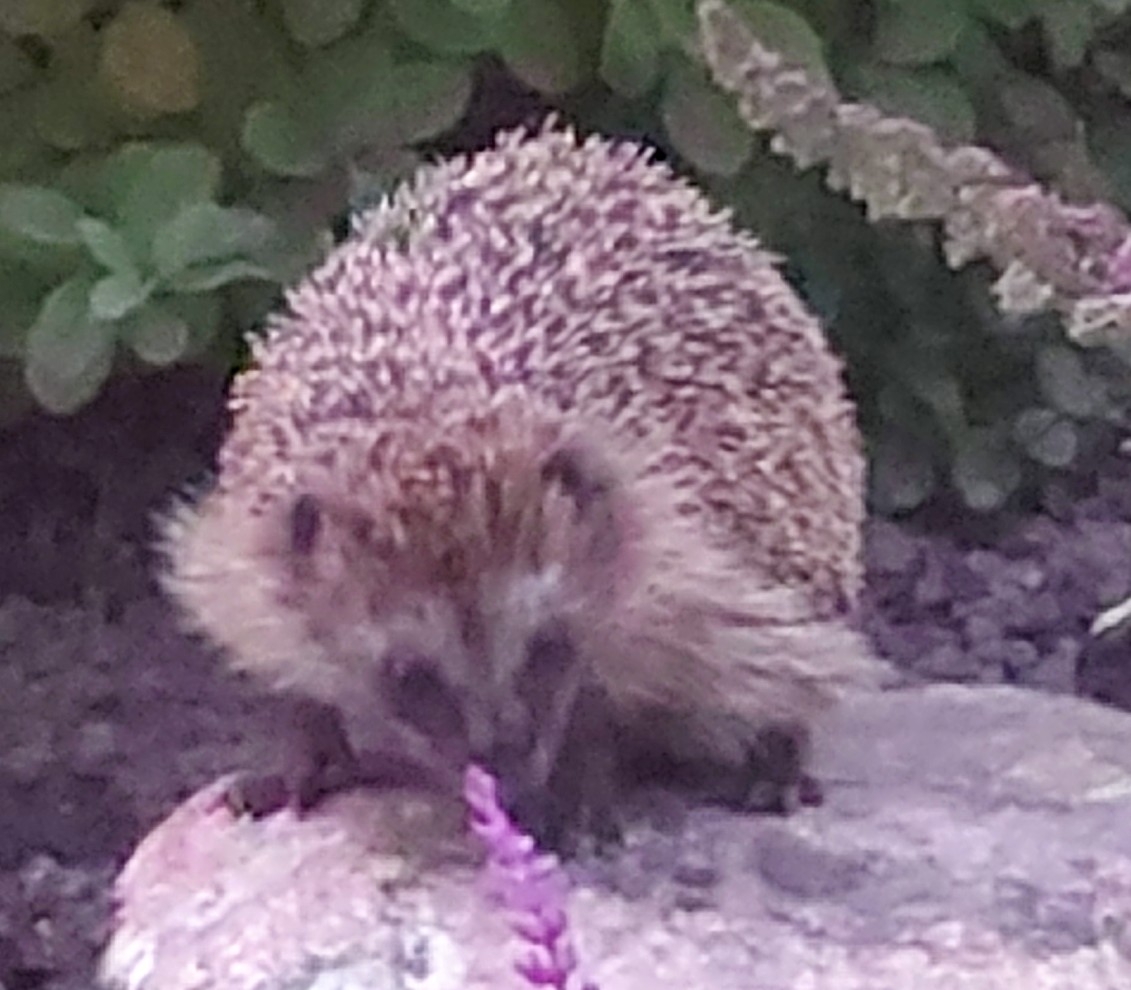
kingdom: Animalia
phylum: Chordata
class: Mammalia
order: Erinaceomorpha
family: Erinaceidae
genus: Erinaceus
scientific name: Erinaceus europaeus
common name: Pindsvin
